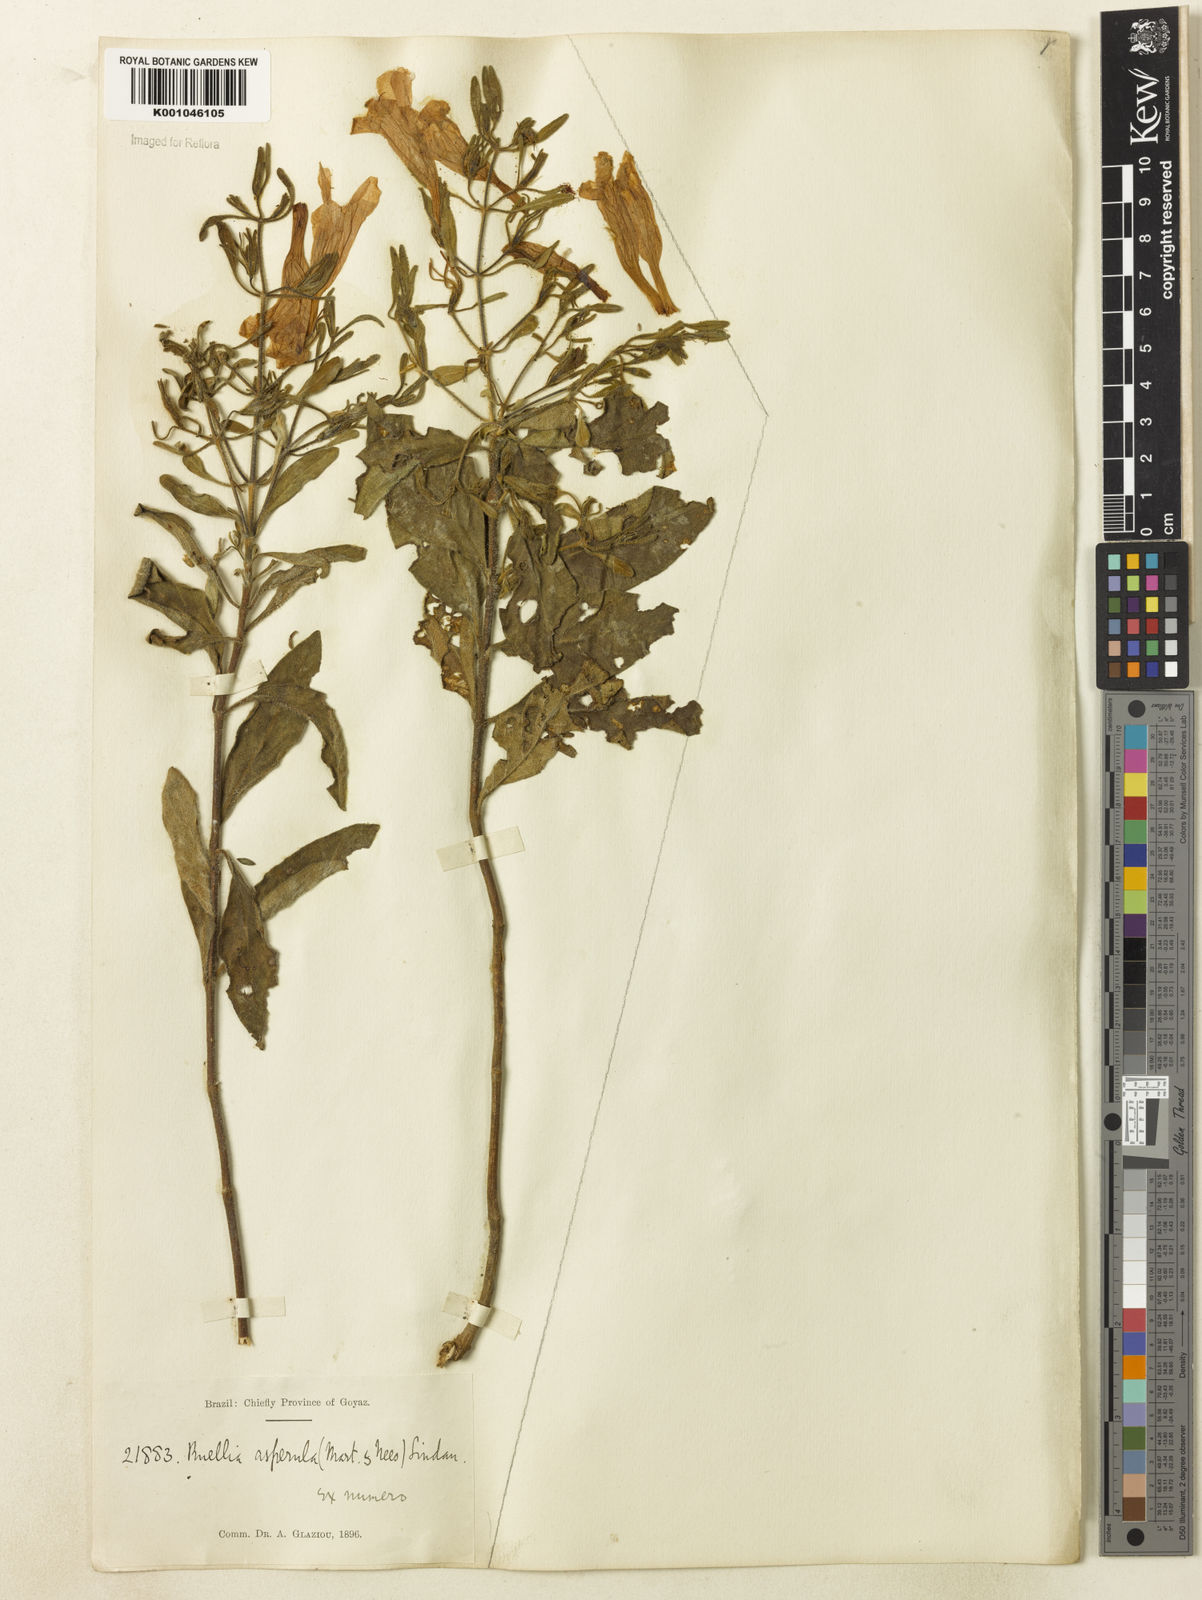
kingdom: Plantae
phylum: Tracheophyta
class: Magnoliopsida
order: Lamiales
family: Acanthaceae
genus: Ruellia
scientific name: Ruellia
